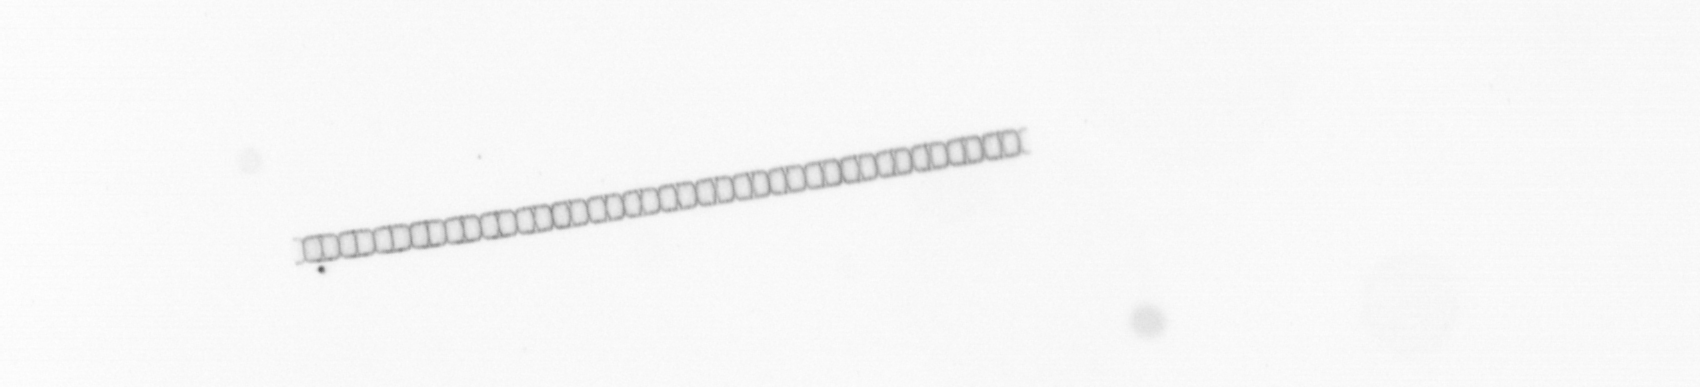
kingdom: Chromista
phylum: Ochrophyta
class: Bacillariophyceae
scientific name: Bacillariophyceae
